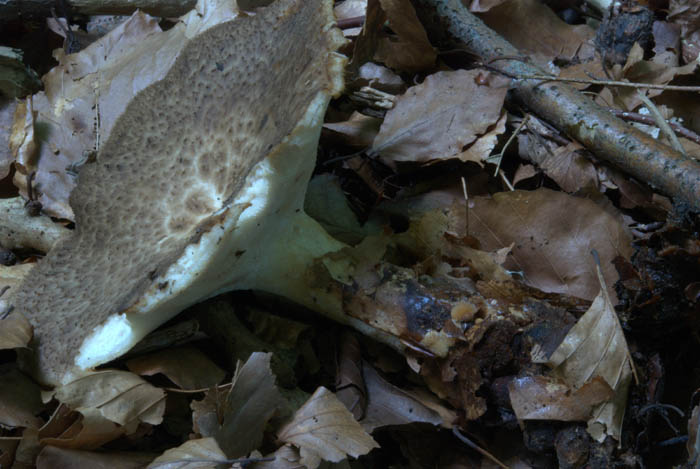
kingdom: Fungi
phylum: Basidiomycota
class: Agaricomycetes
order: Polyporales
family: Polyporaceae
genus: Polyporus
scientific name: Polyporus tuberaster
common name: knoldet stilkporesvamp
